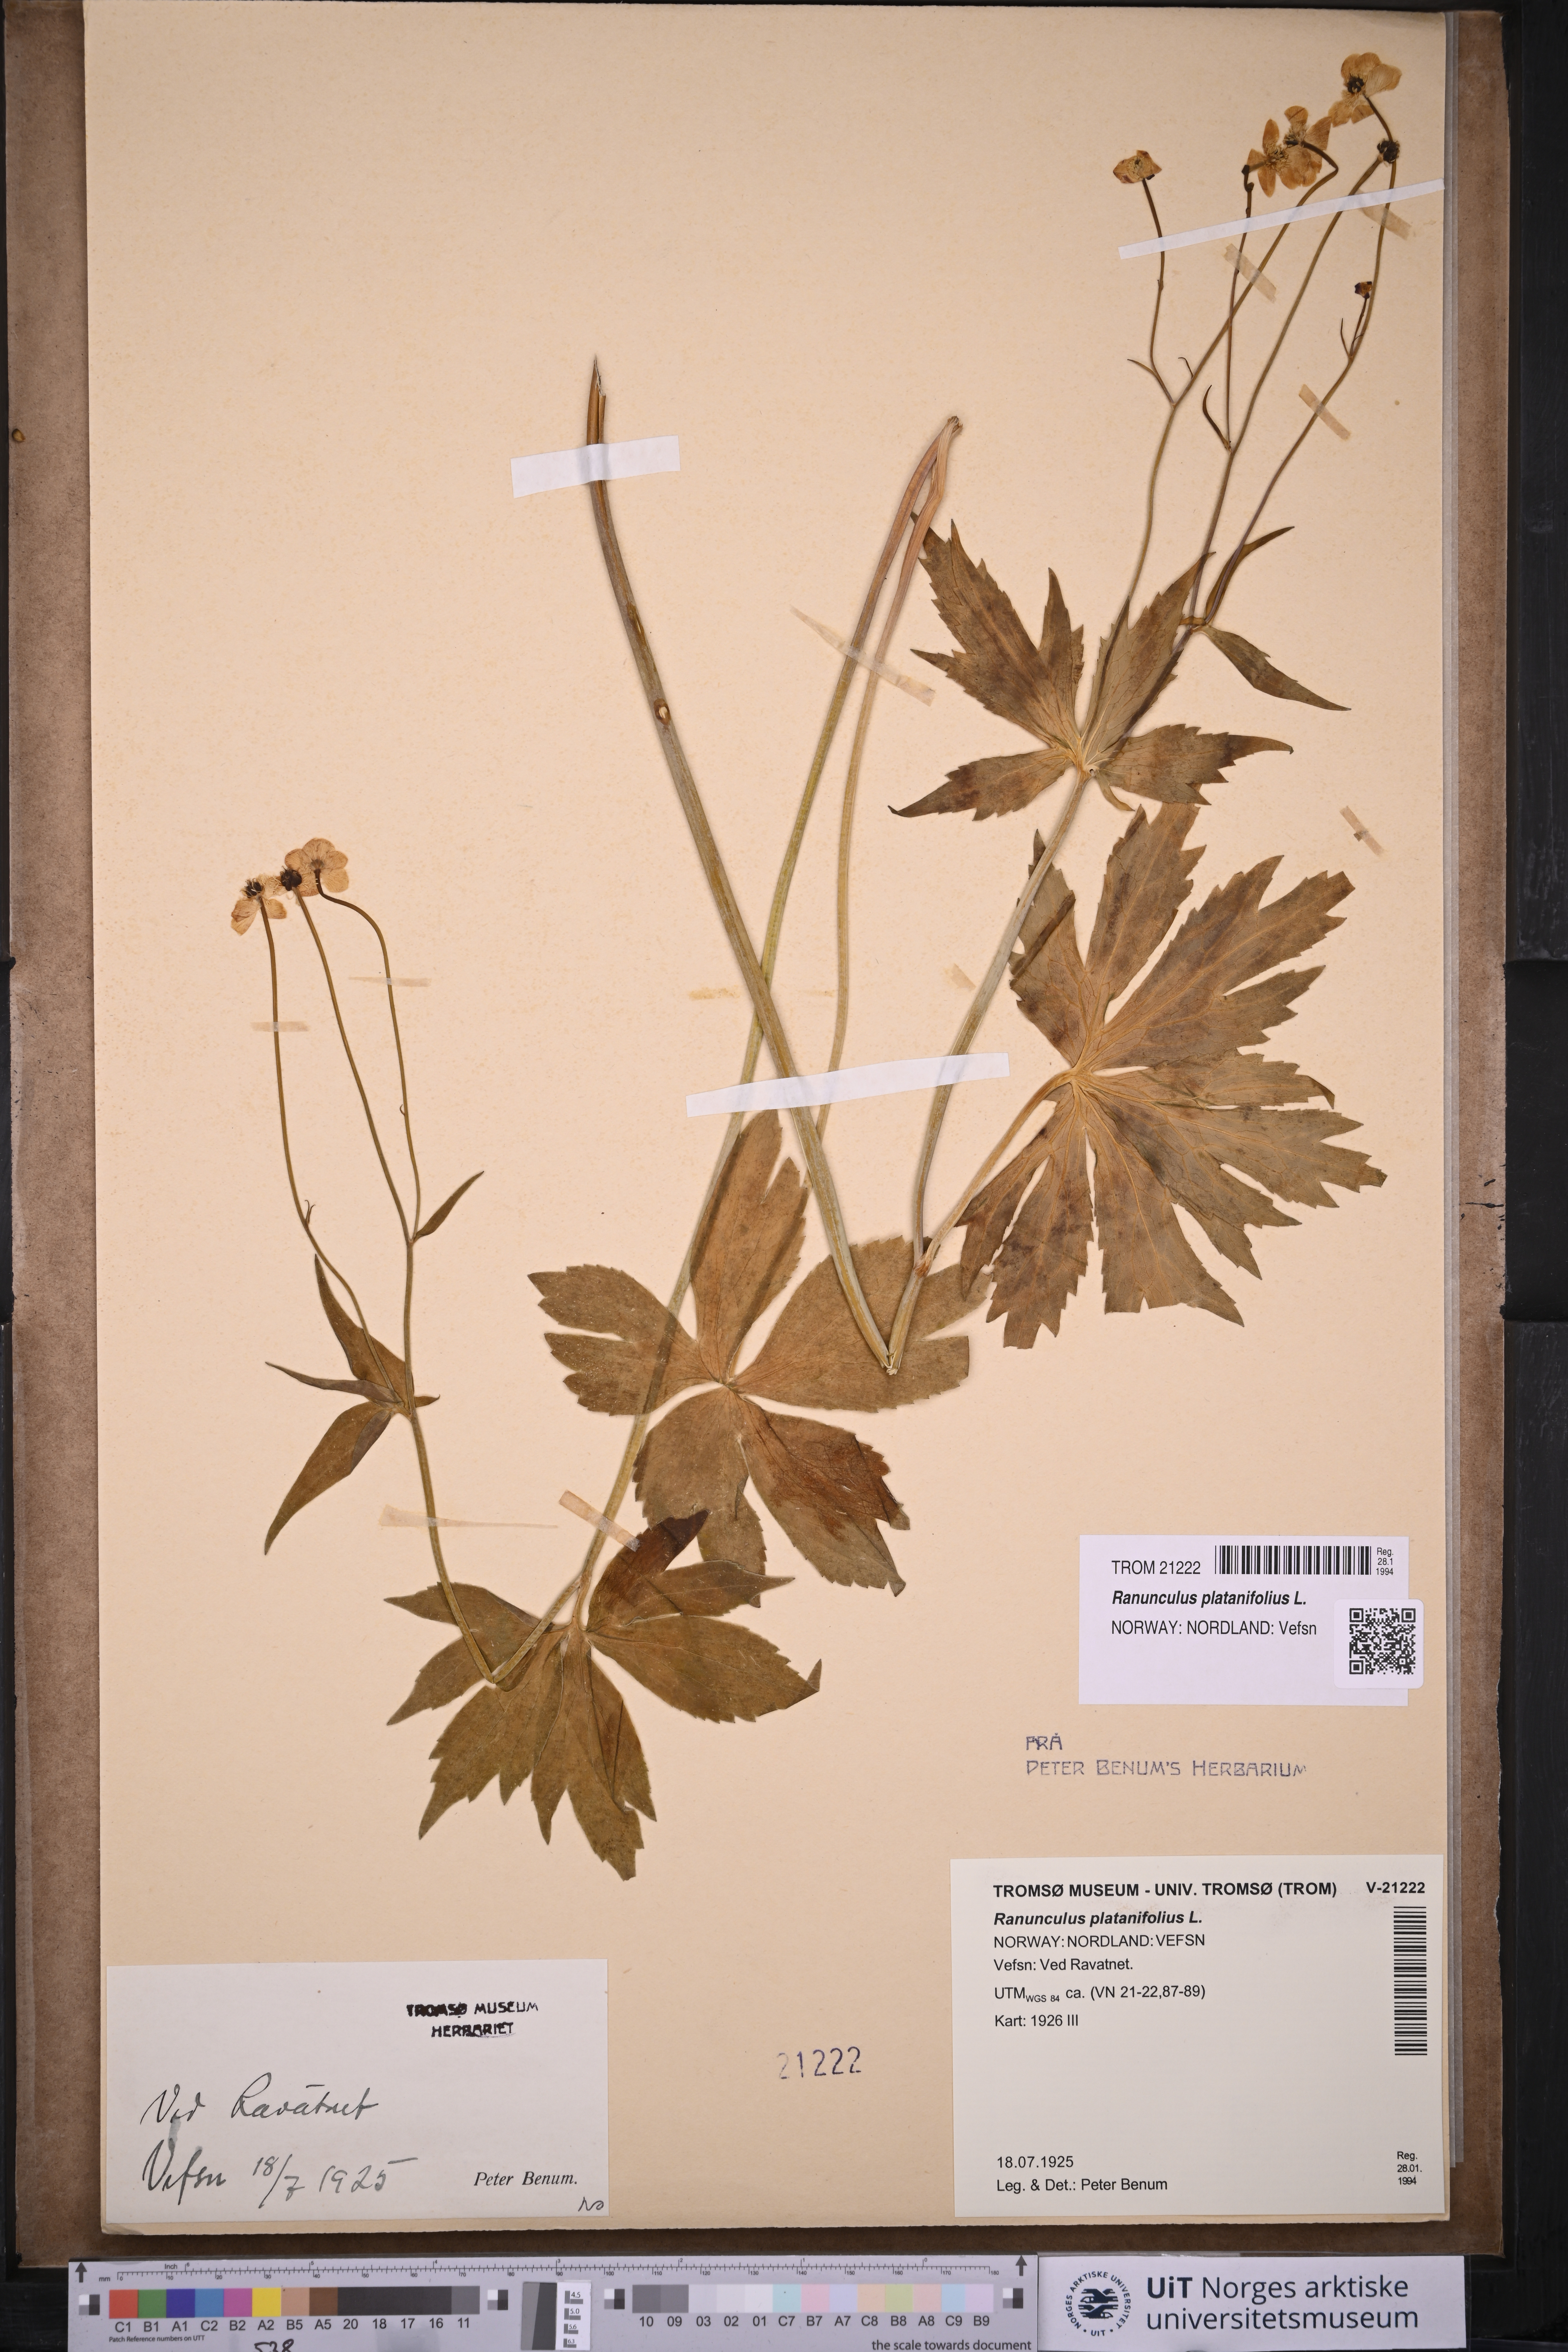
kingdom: Plantae
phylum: Tracheophyta
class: Magnoliopsida
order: Ranunculales
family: Ranunculaceae
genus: Ranunculus
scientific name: Ranunculus platanifolius
